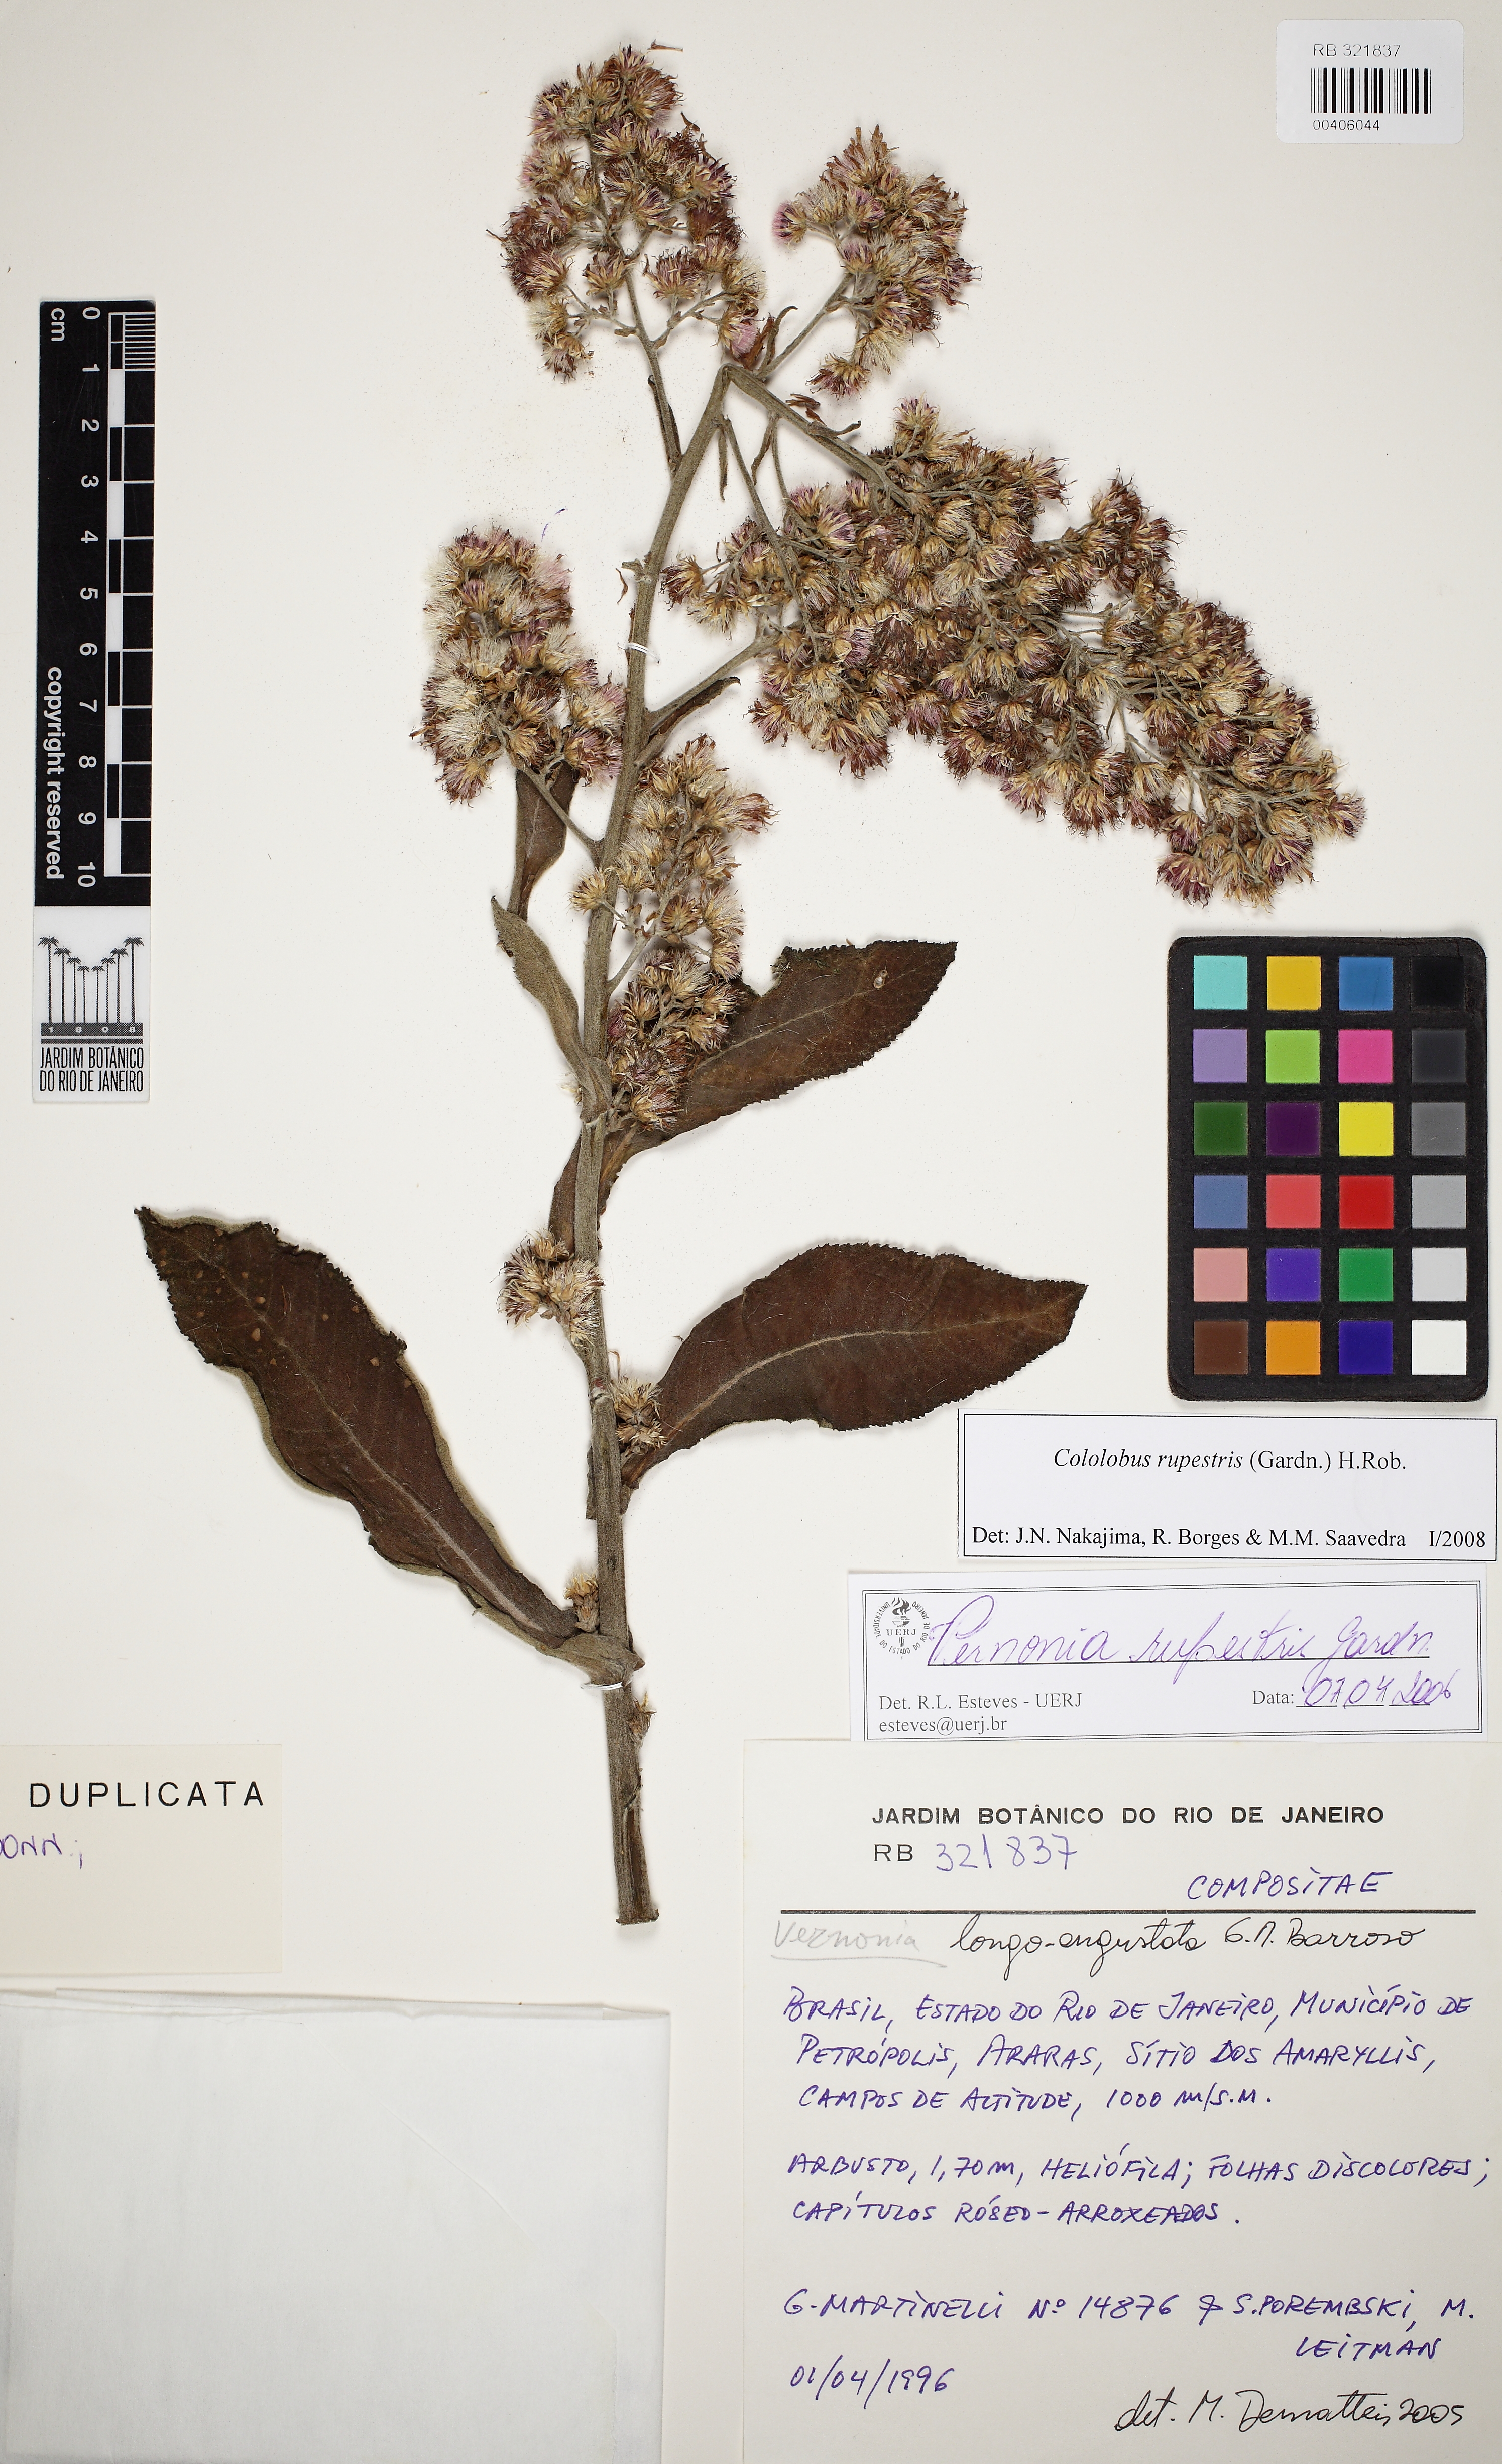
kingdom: Plantae
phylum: Tracheophyta
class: Magnoliopsida
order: Asterales
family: Asteraceae
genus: Cololobus
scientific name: Cololobus rupestris
